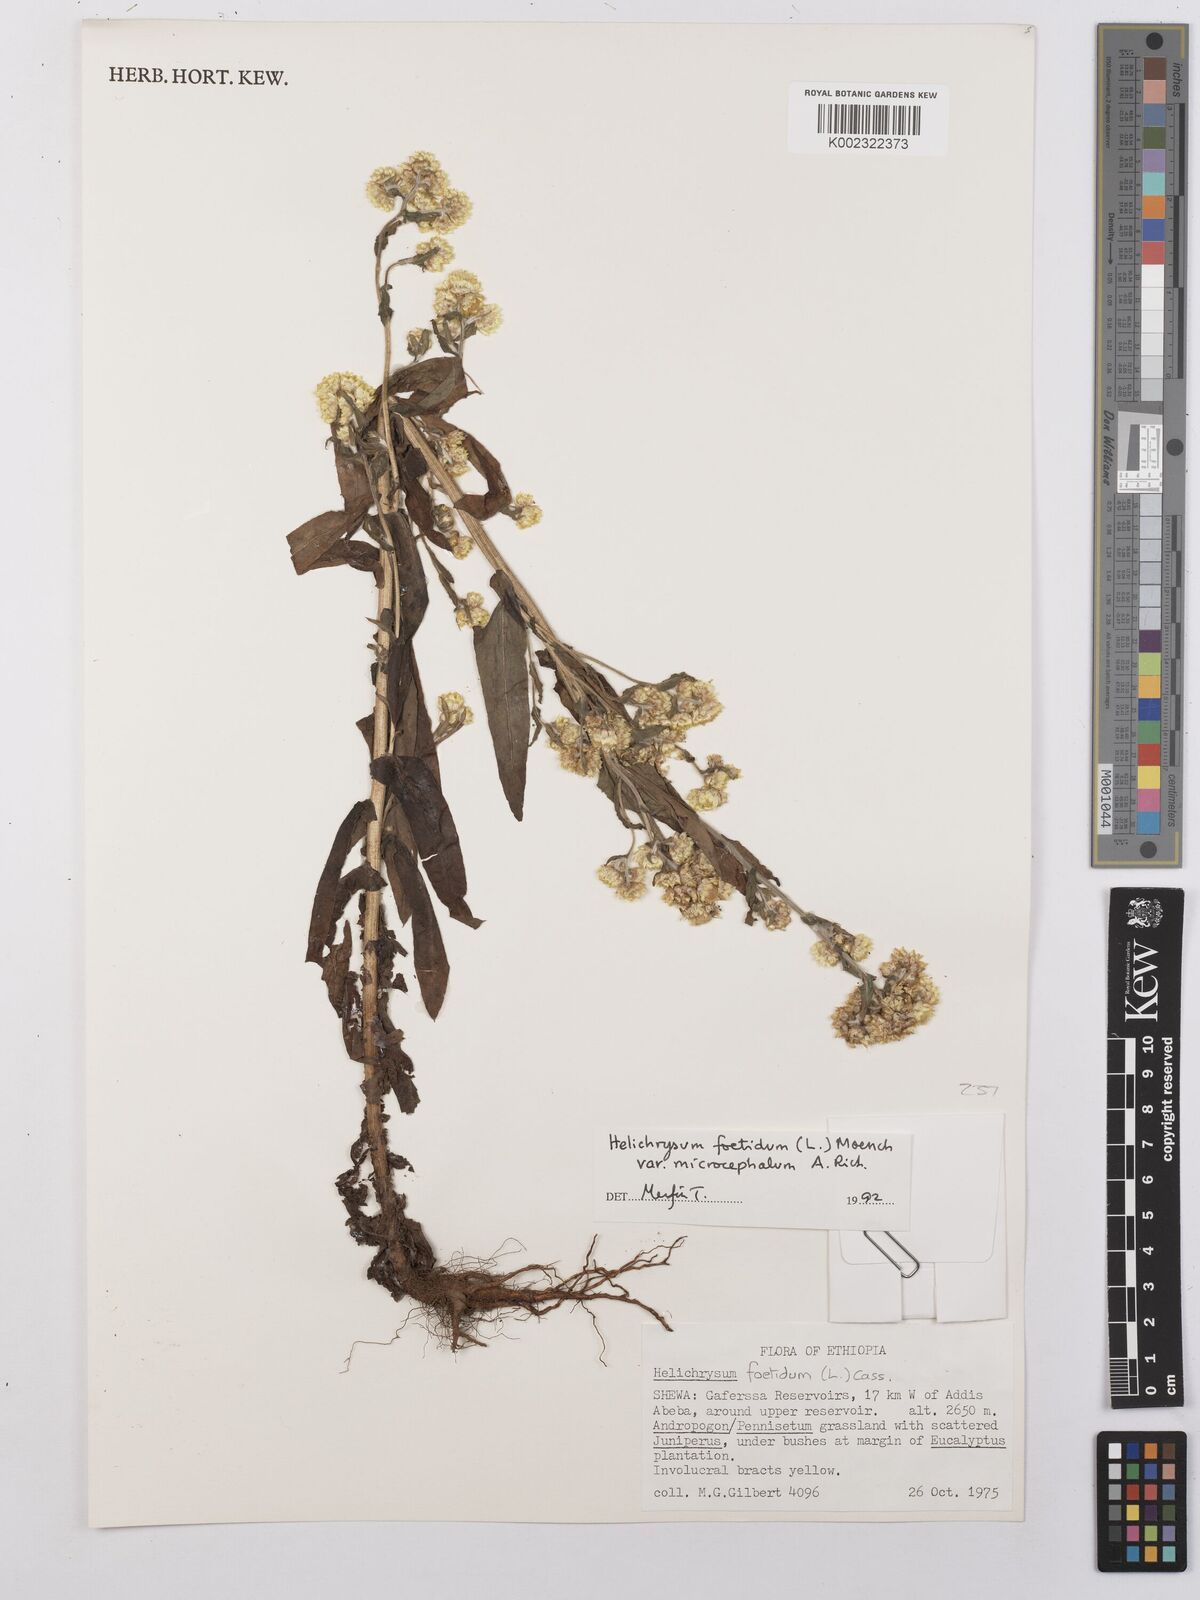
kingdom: Plantae
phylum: Tracheophyta
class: Magnoliopsida
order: Asterales
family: Asteraceae
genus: Helichrysum
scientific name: Helichrysum foetidum
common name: Stinking everlasting
